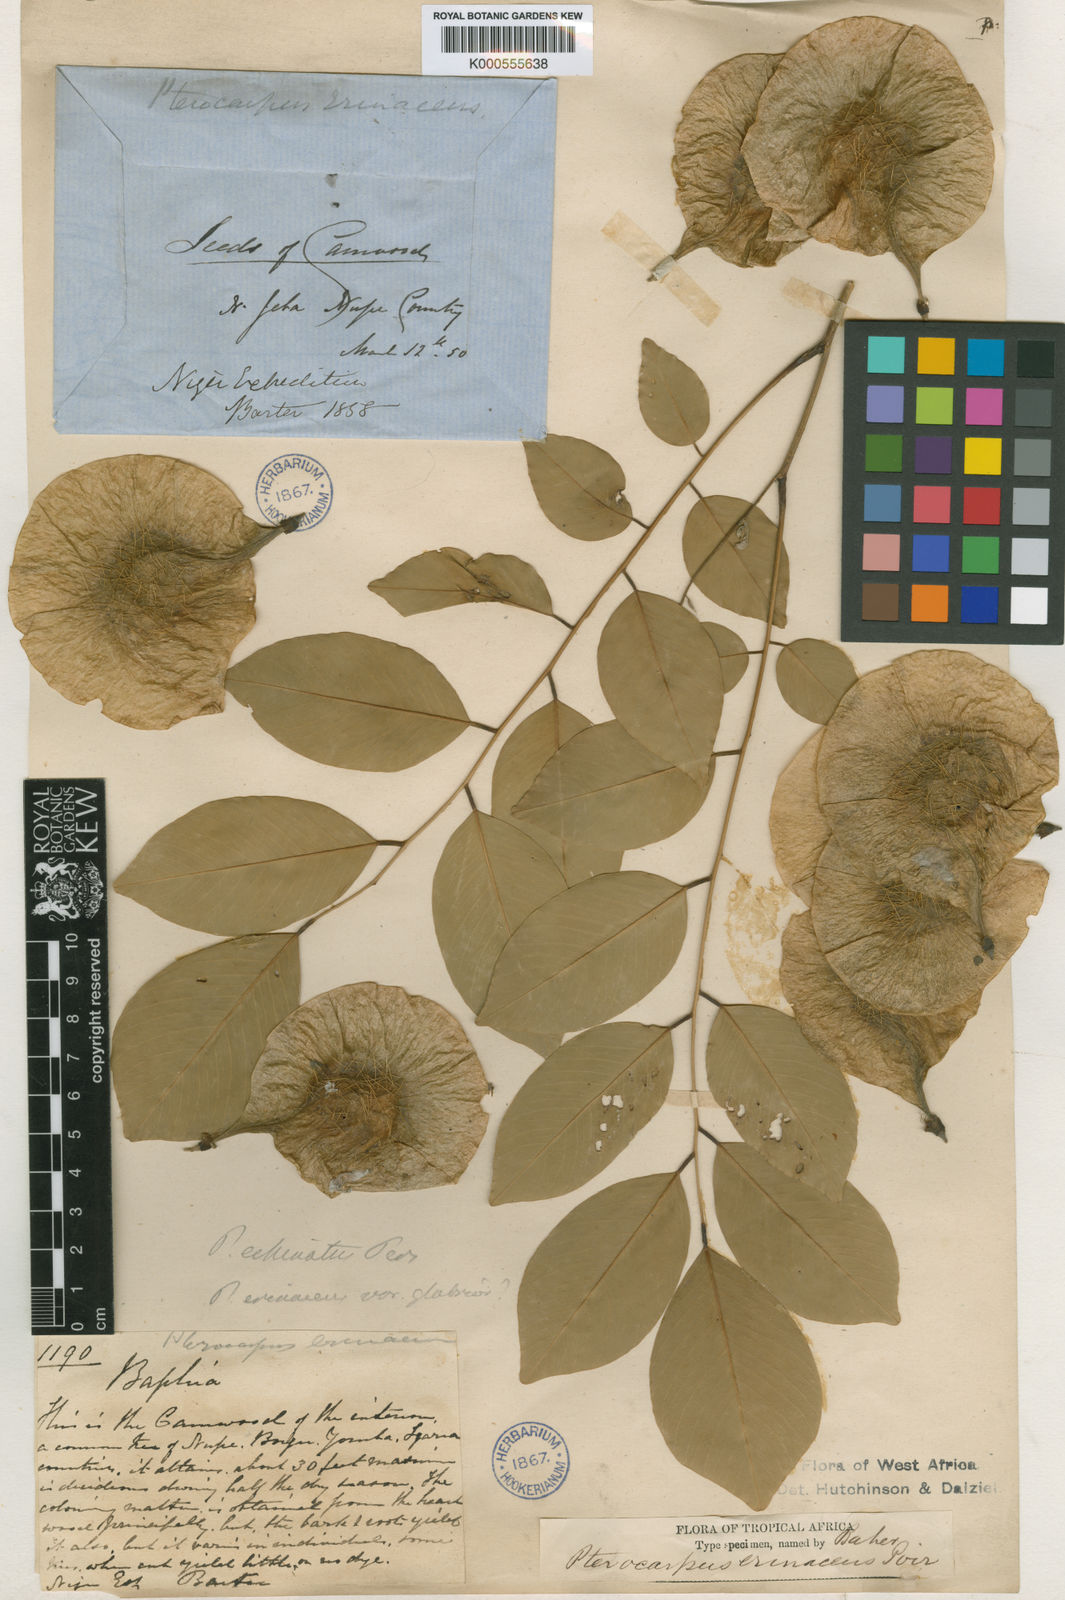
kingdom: Plantae
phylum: Tracheophyta
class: Magnoliopsida
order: Fabales
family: Fabaceae
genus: Pterocarpus
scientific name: Pterocarpus erinaceus
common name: African rosewood
